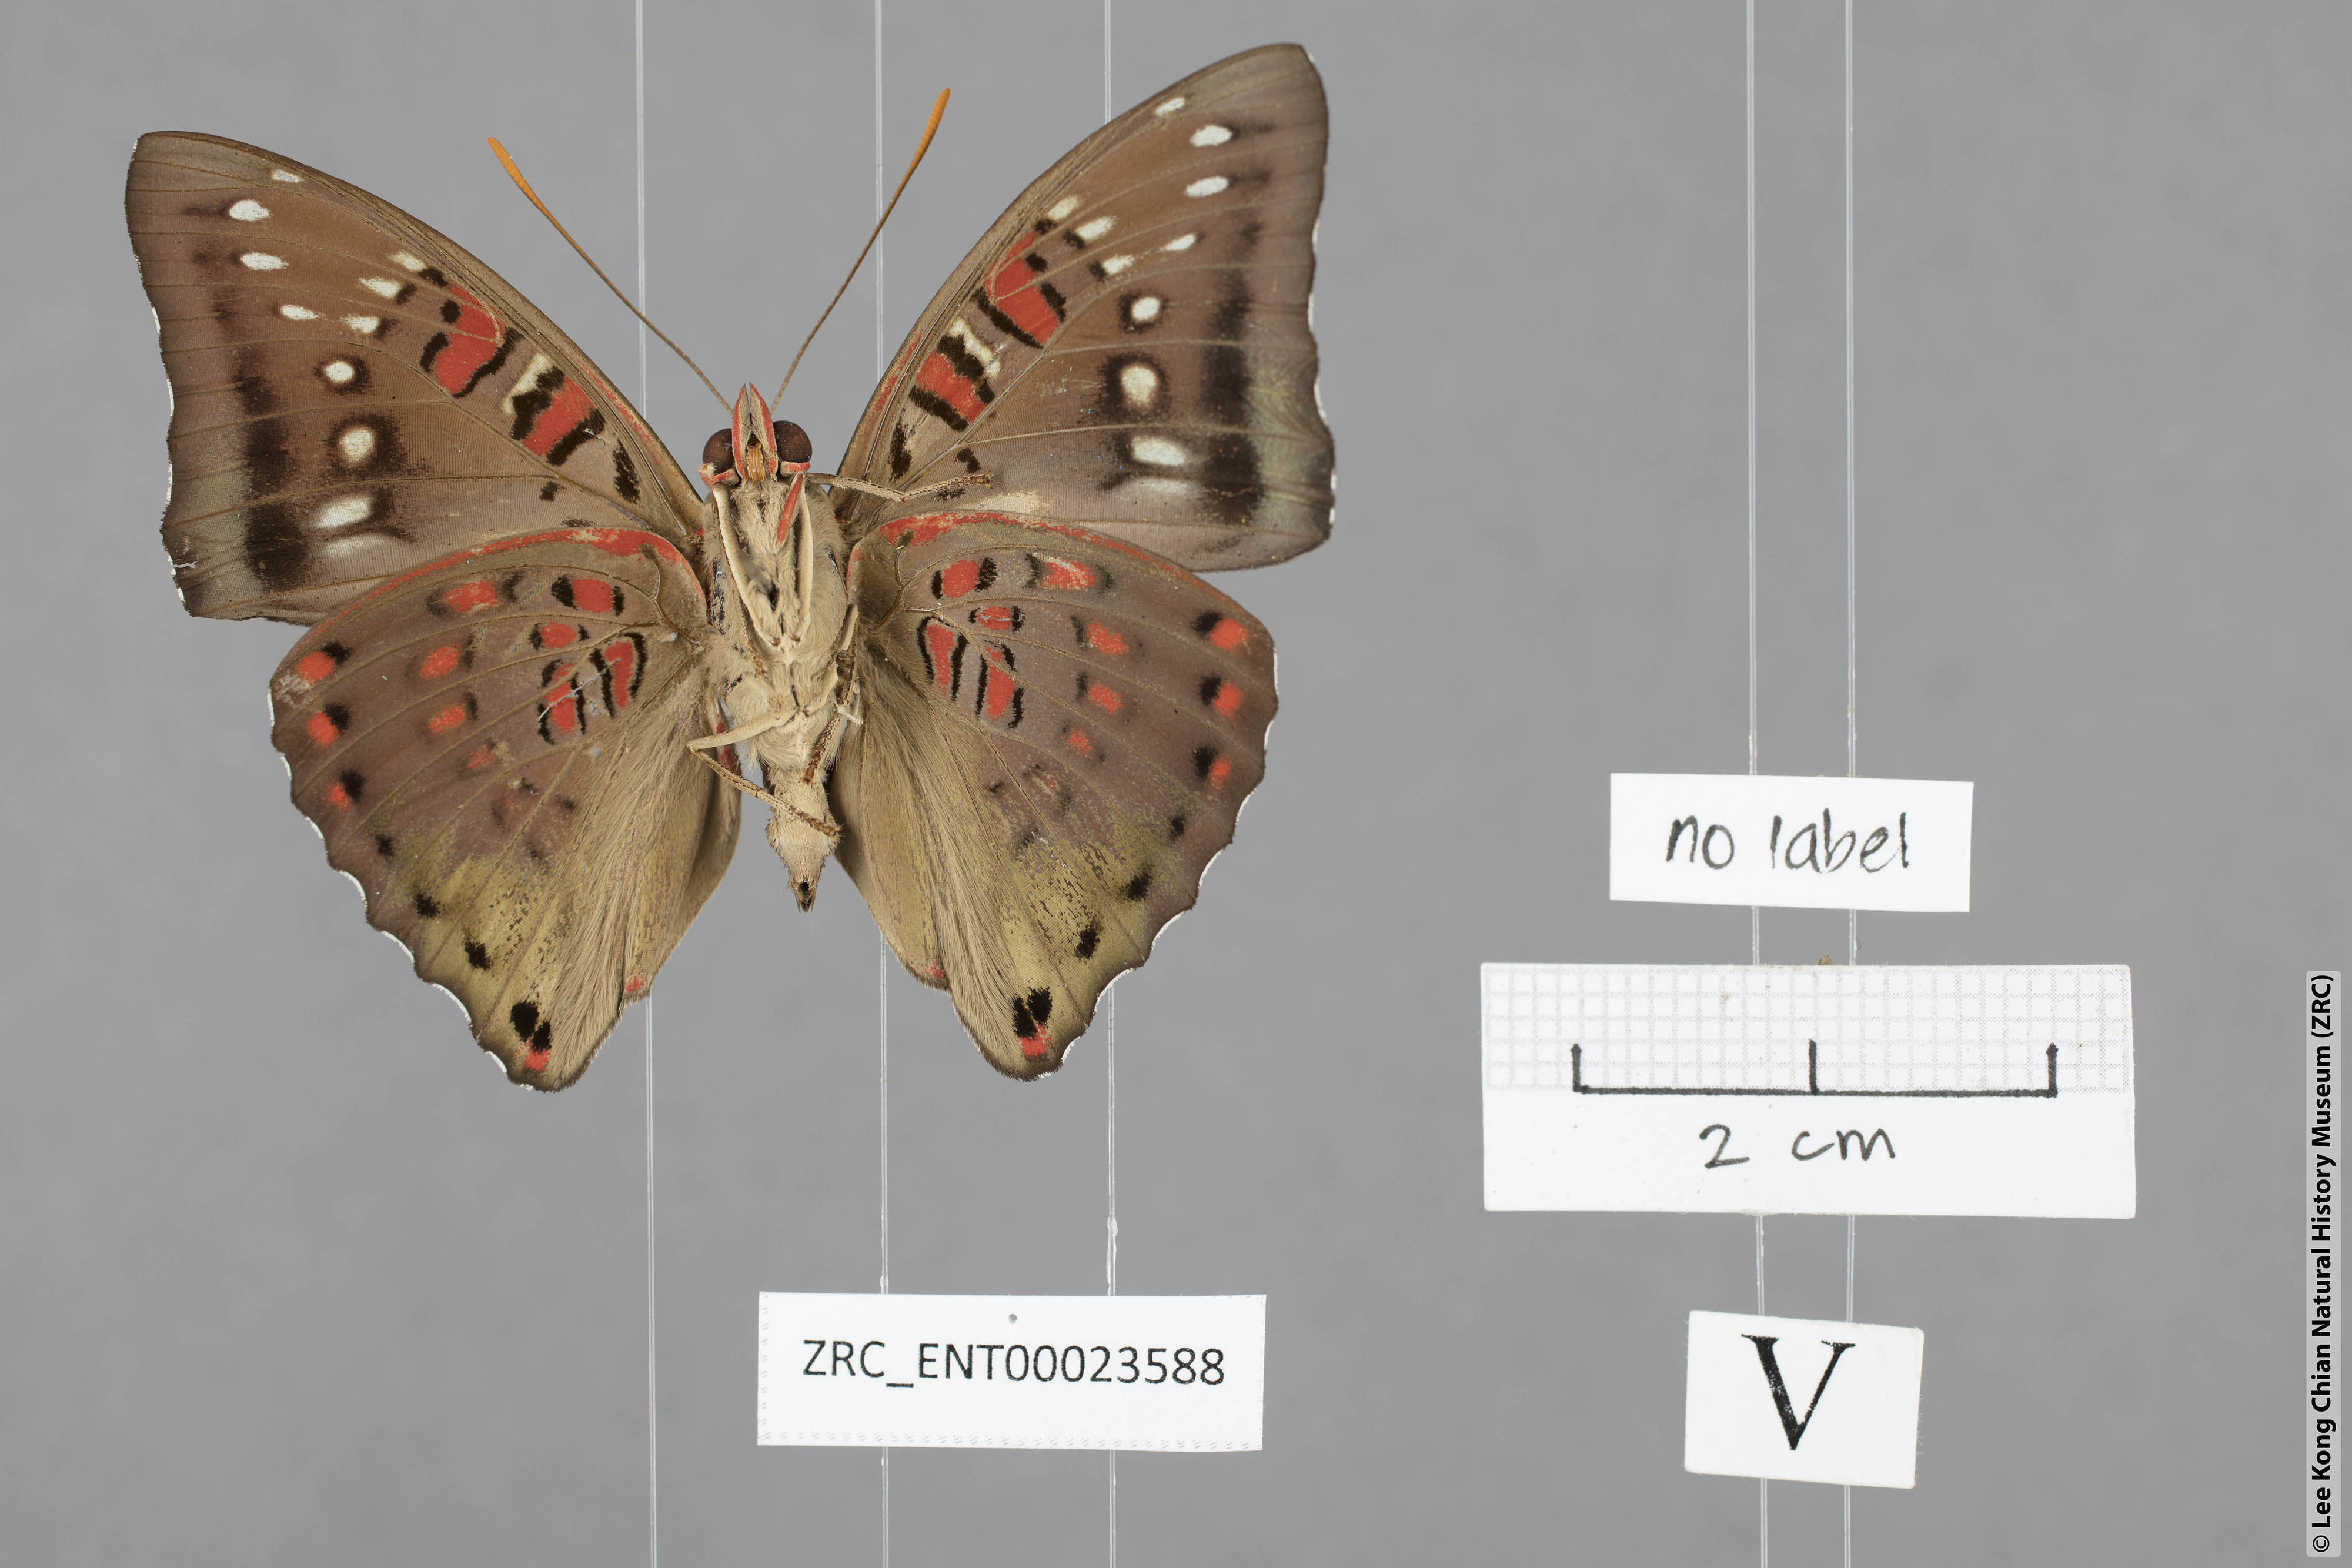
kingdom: Animalia
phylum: Arthropoda
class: Insecta
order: Lepidoptera
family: Nymphalidae
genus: Euthalia
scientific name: Euthalia adonia
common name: Green baron
